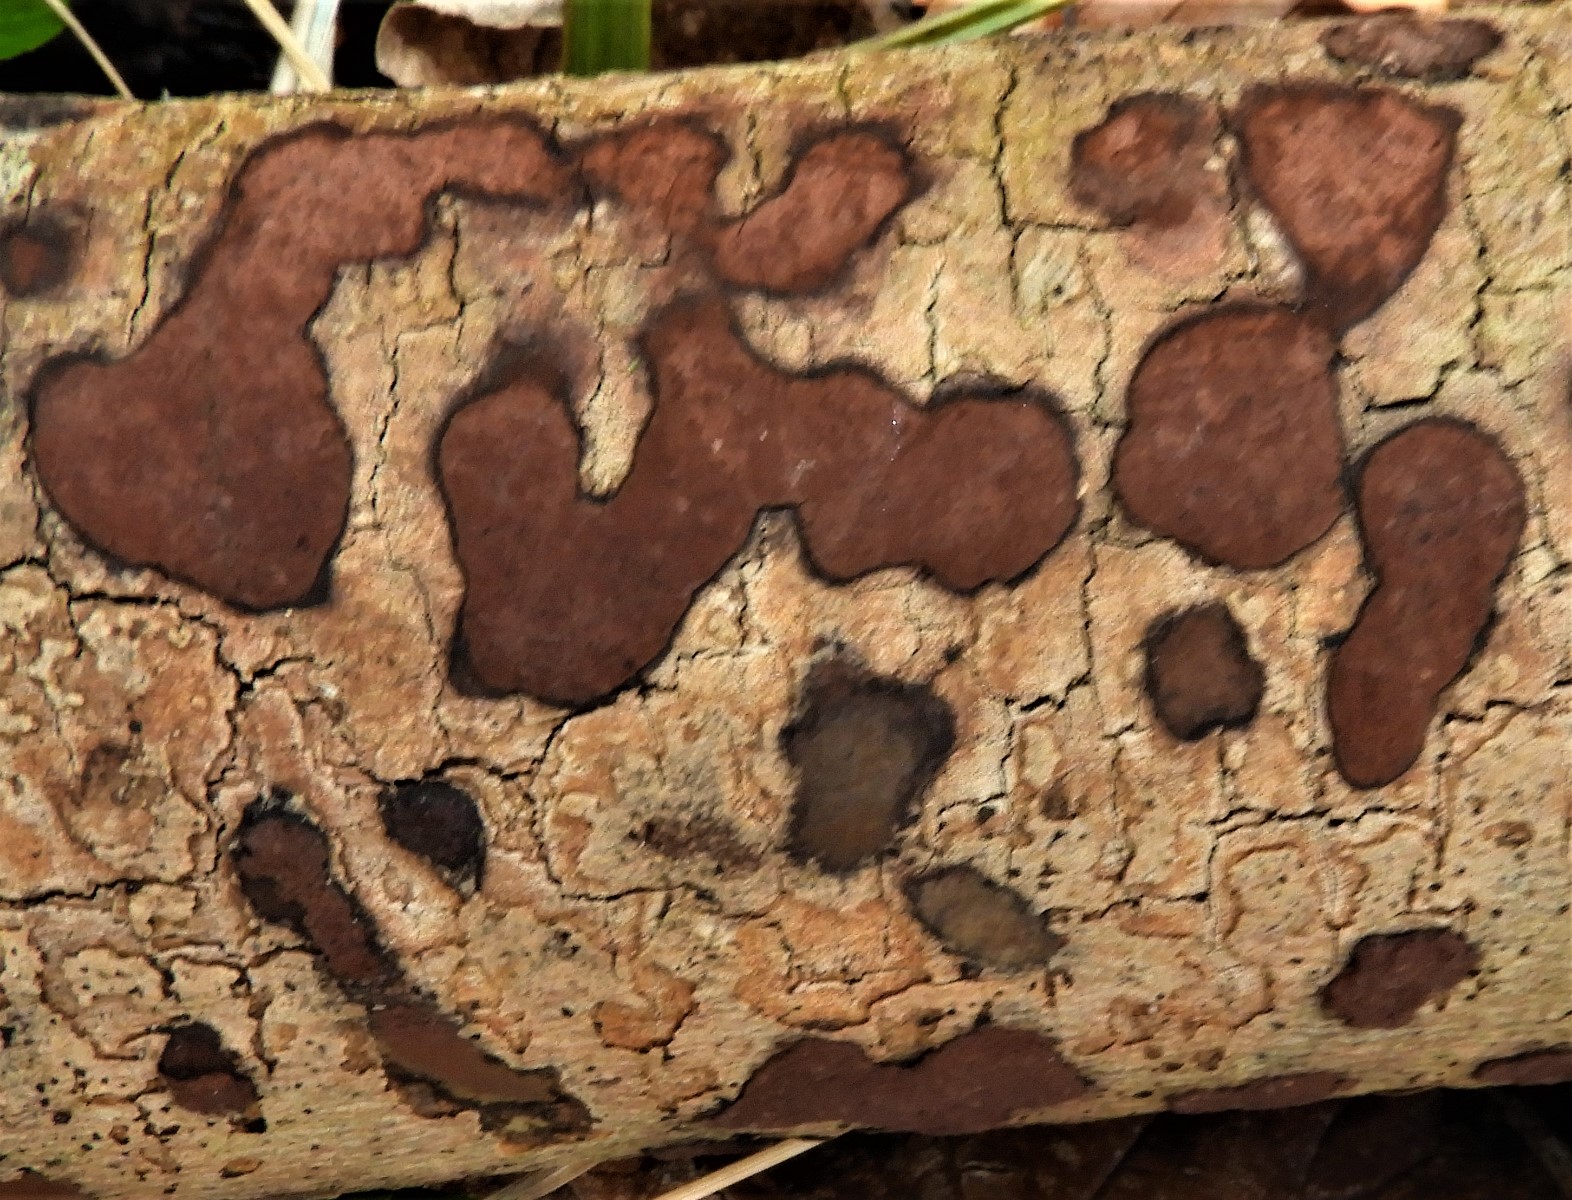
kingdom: Fungi
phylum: Ascomycota
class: Sordariomycetes
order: Xylariales
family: Hypoxylaceae
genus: Hypoxylon
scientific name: Hypoxylon petriniae
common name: nedsænket kulbær
